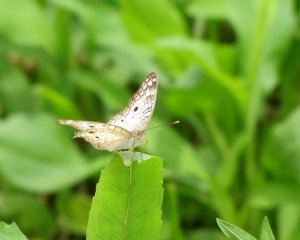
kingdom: Animalia
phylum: Arthropoda
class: Insecta
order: Lepidoptera
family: Nymphalidae
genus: Anartia
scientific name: Anartia jatrophae
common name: White Peacock
